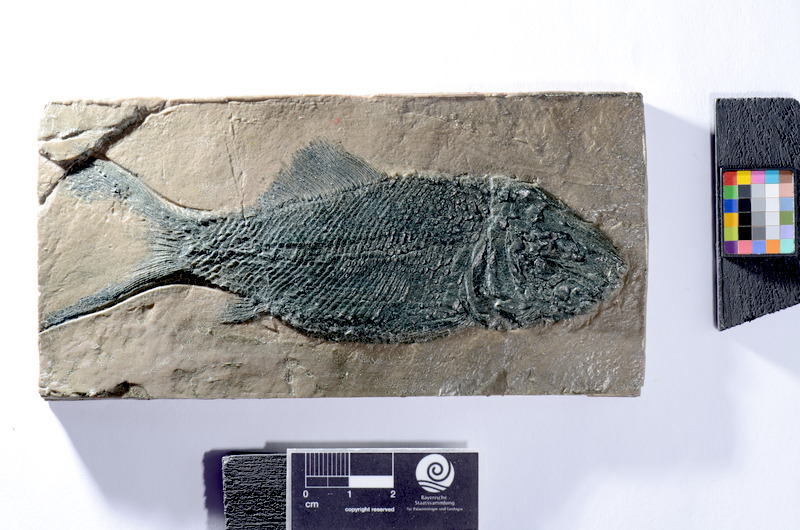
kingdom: Animalia
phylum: Chordata
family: Ophiopsiellidae
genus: Heterolepidotus
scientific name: Heterolepidotus Pholidophorus dorsalis
